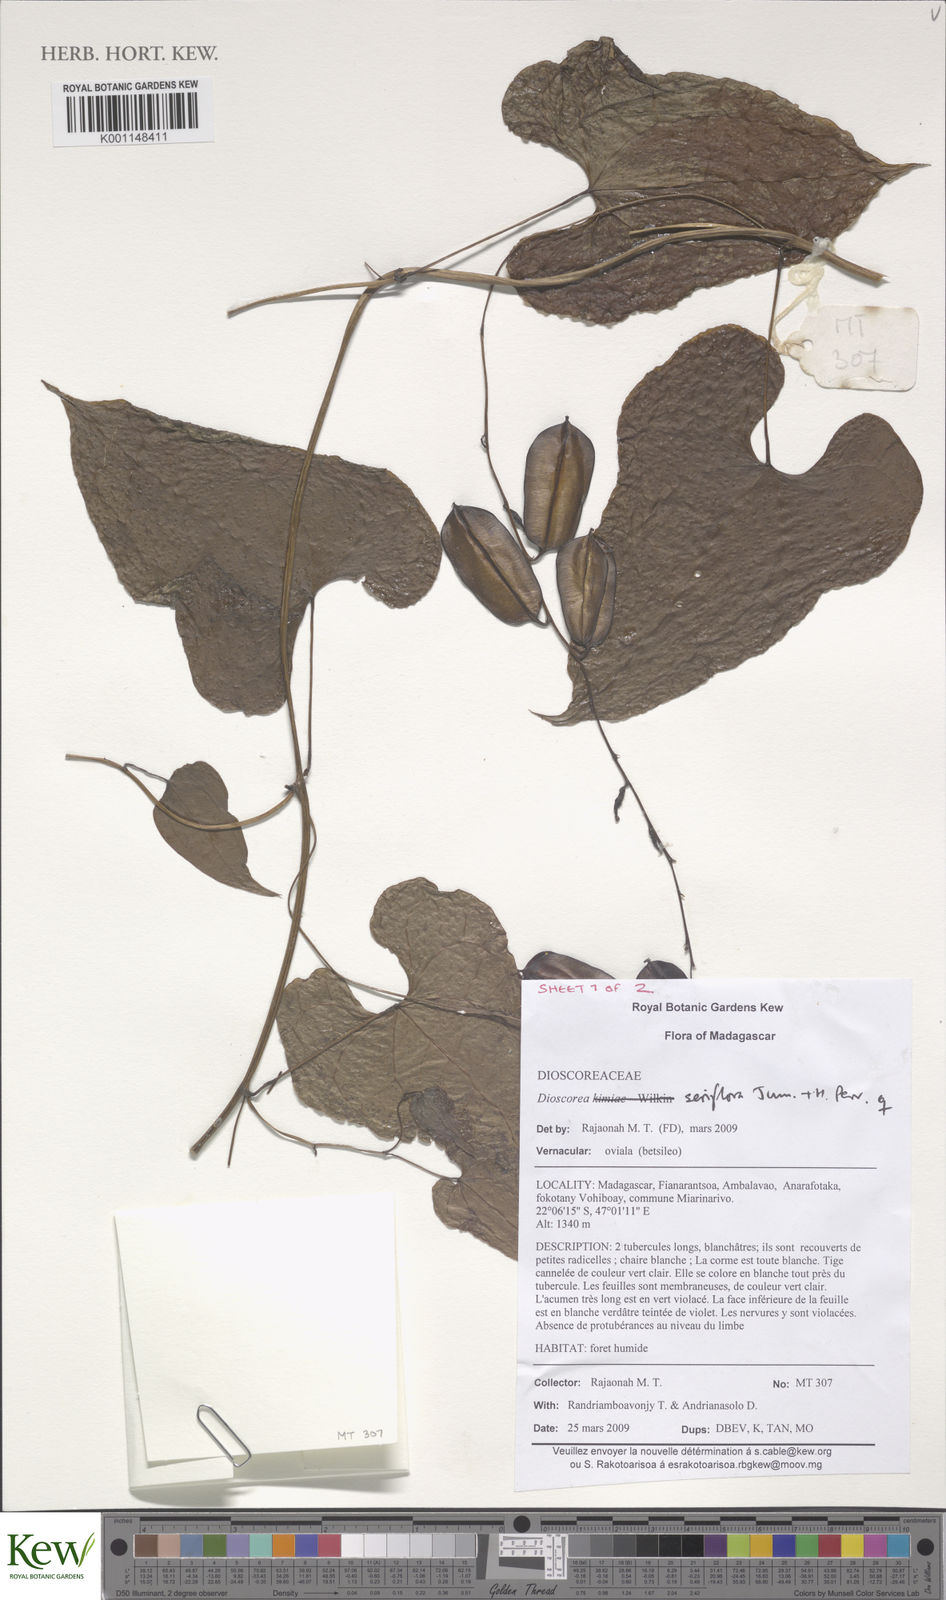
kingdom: Plantae
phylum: Tracheophyta
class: Liliopsida
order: Dioscoreales
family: Dioscoreaceae
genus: Dioscorea
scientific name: Dioscorea seriflora
